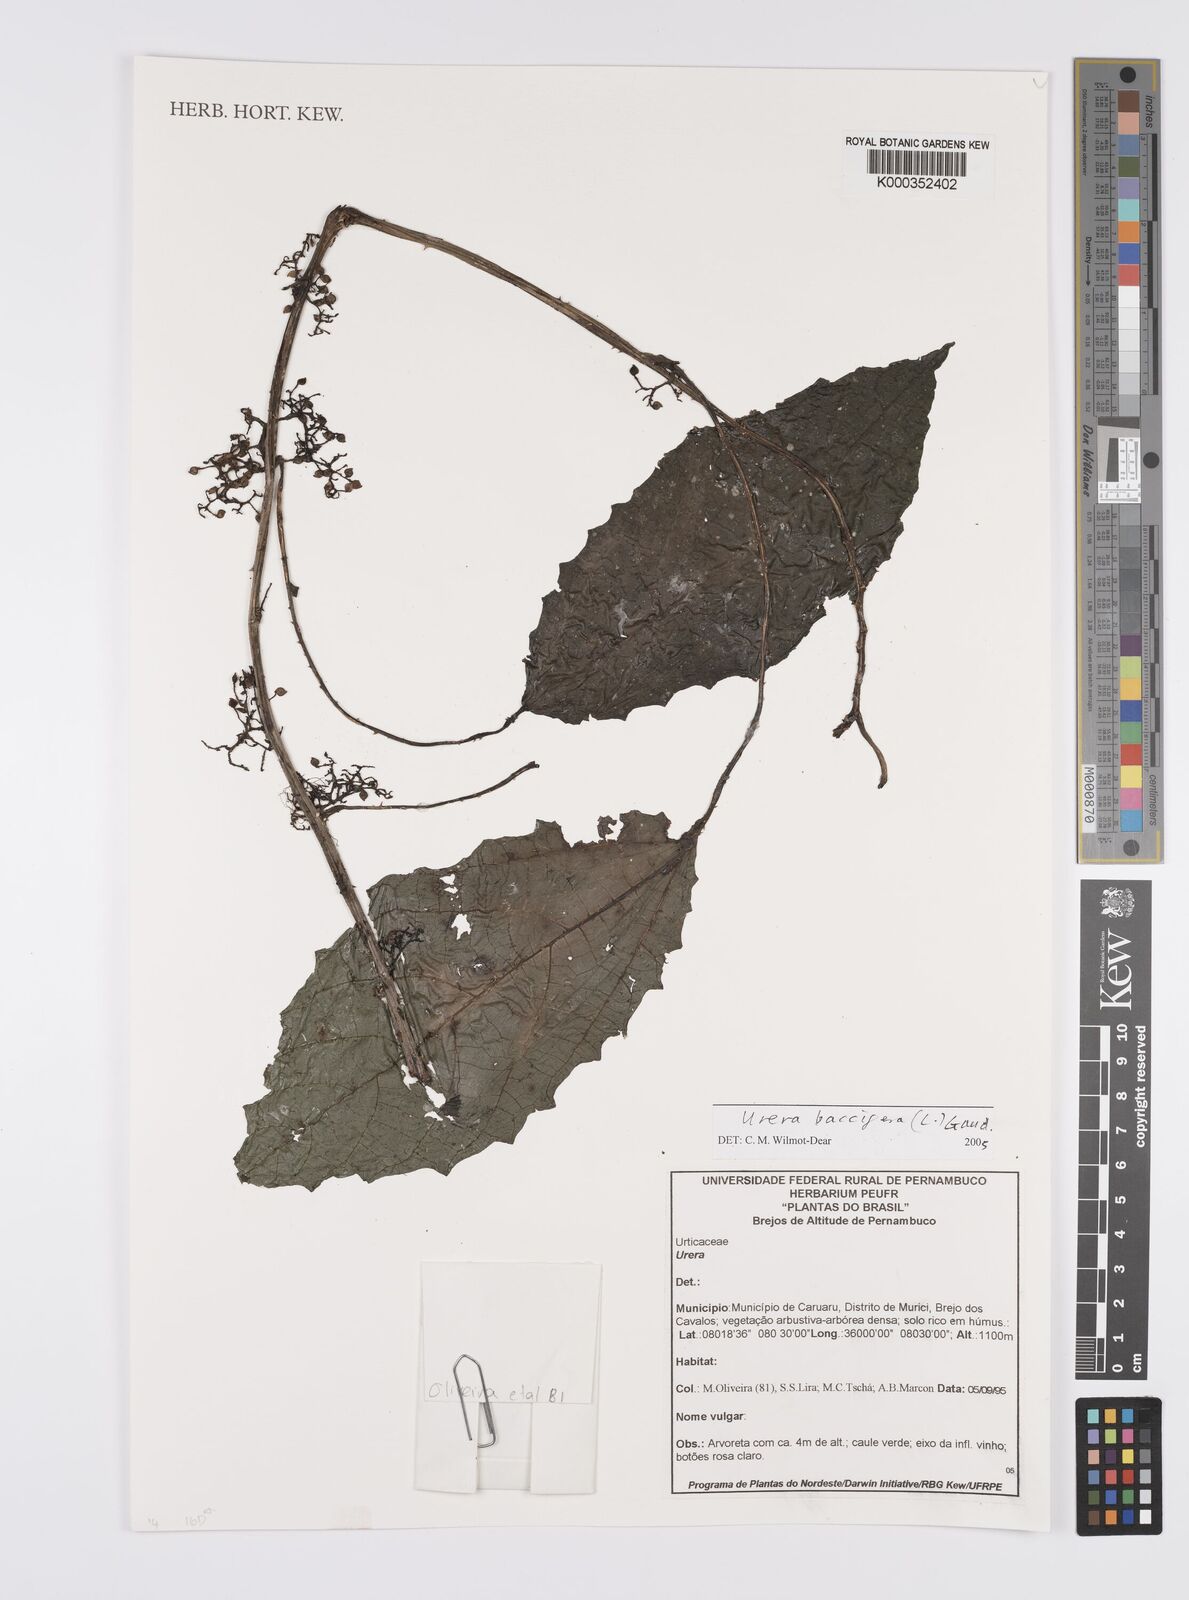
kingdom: Plantae
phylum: Tracheophyta
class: Magnoliopsida
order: Rosales
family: Urticaceae
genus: Urera
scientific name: Urera
